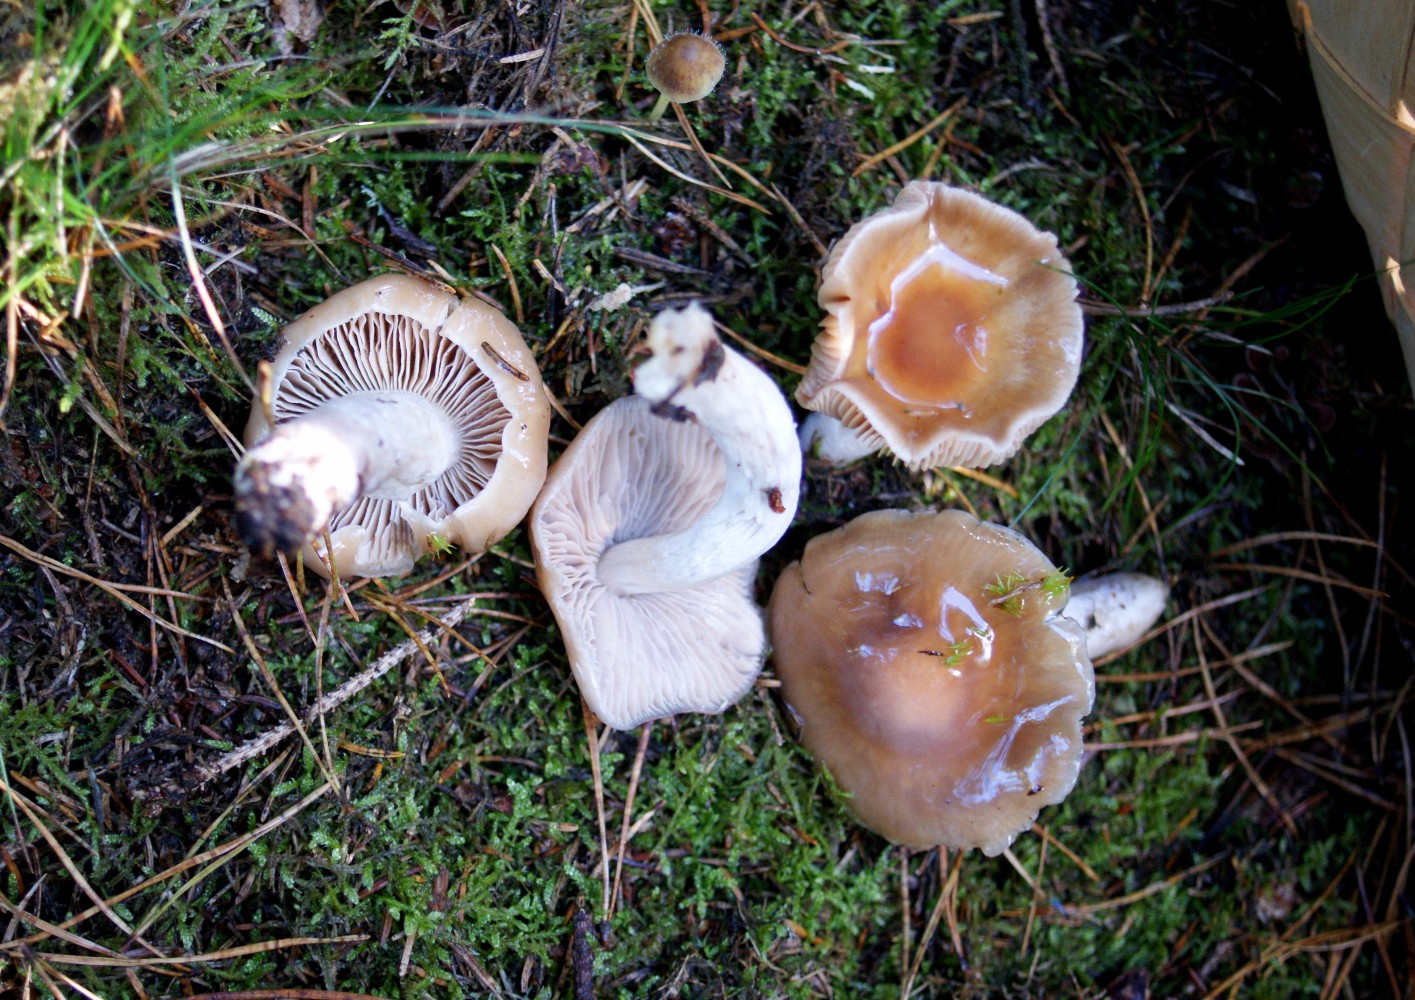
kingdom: Fungi
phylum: Basidiomycota
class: Agaricomycetes
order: Agaricales
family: Cortinariaceae
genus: Cortinarius
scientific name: Cortinarius mucifluus
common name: rynket slørhat
